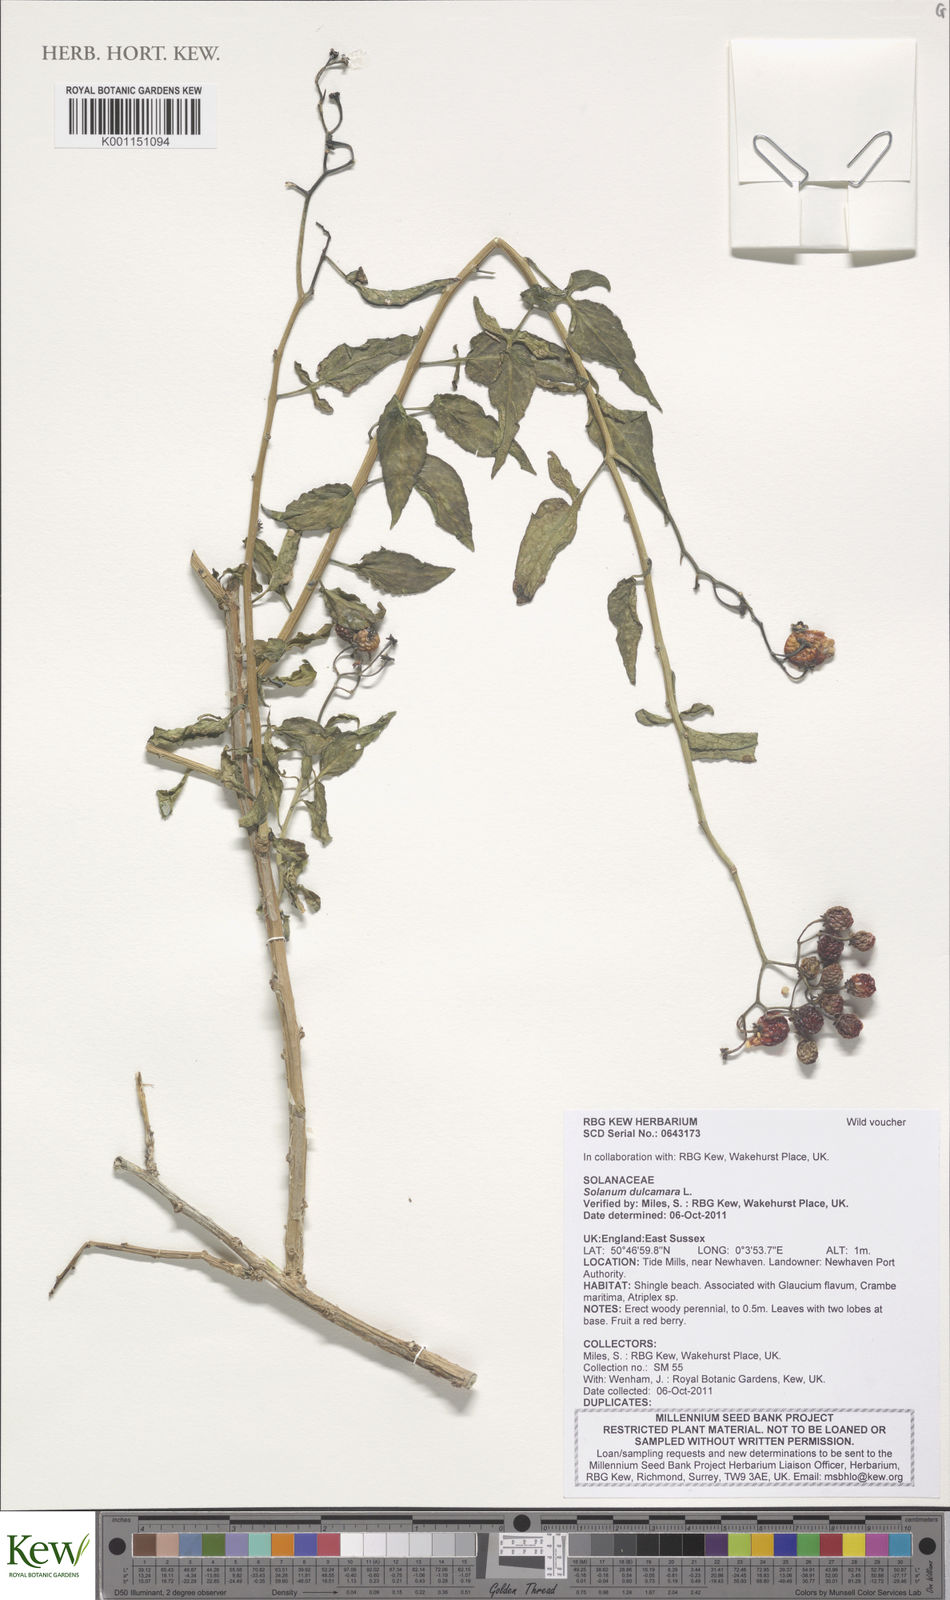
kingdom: Plantae
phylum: Tracheophyta
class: Magnoliopsida
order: Solanales
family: Solanaceae
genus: Solanum
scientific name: Solanum dulcamara
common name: Climbing nightshade
